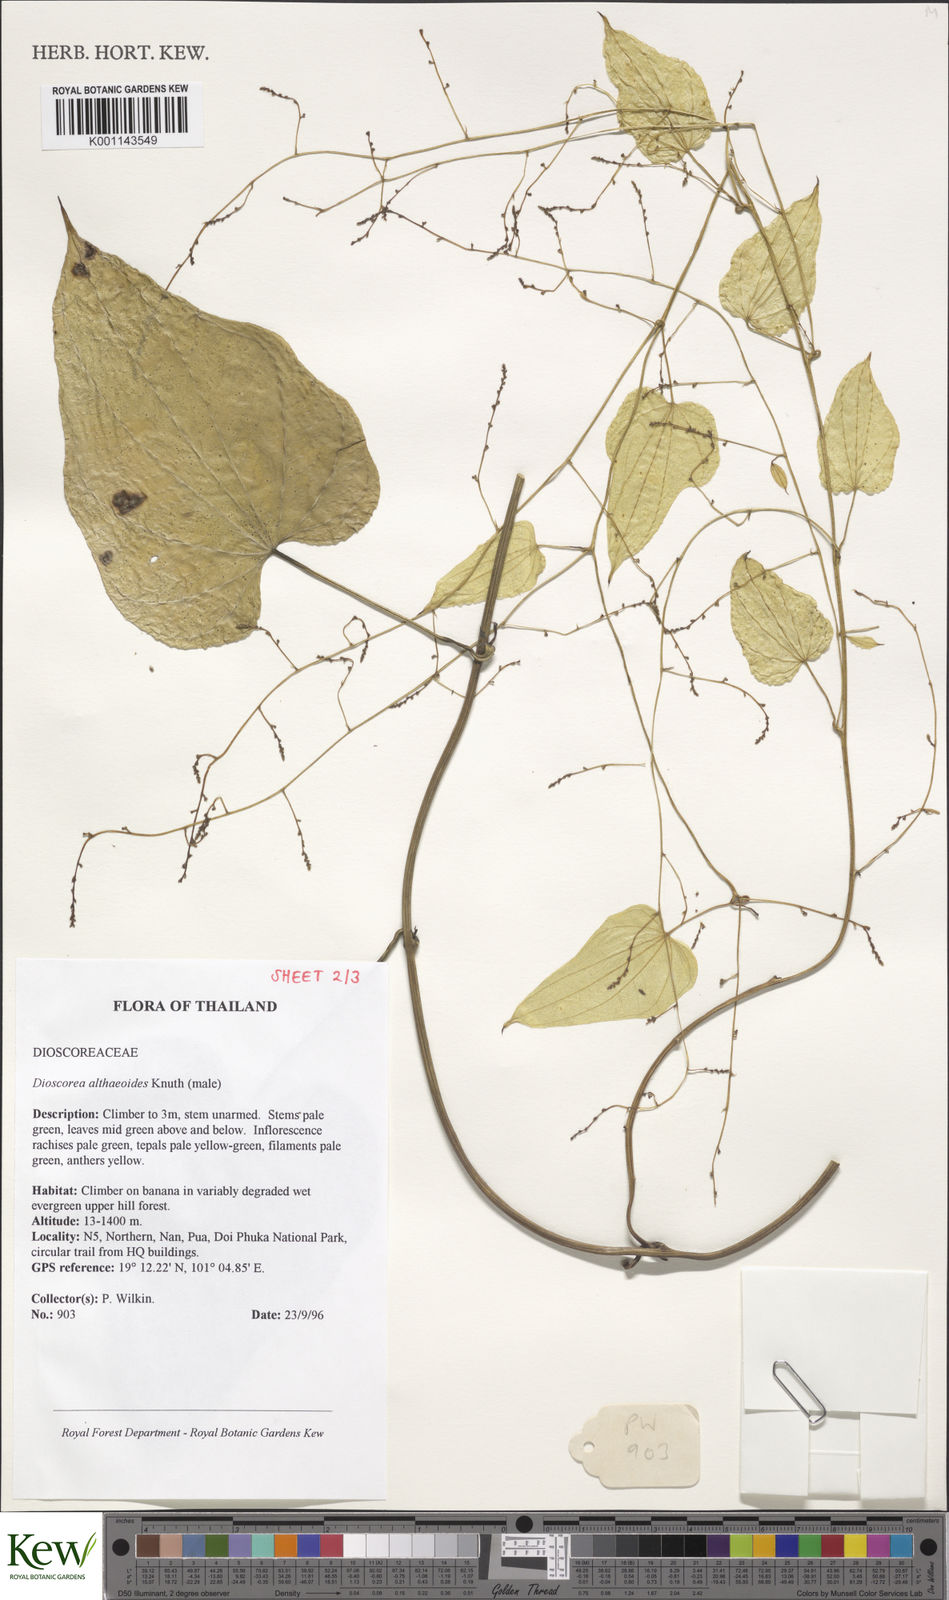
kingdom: Plantae
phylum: Tracheophyta
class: Liliopsida
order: Dioscoreales
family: Dioscoreaceae
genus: Dioscorea
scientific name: Dioscorea rockii
